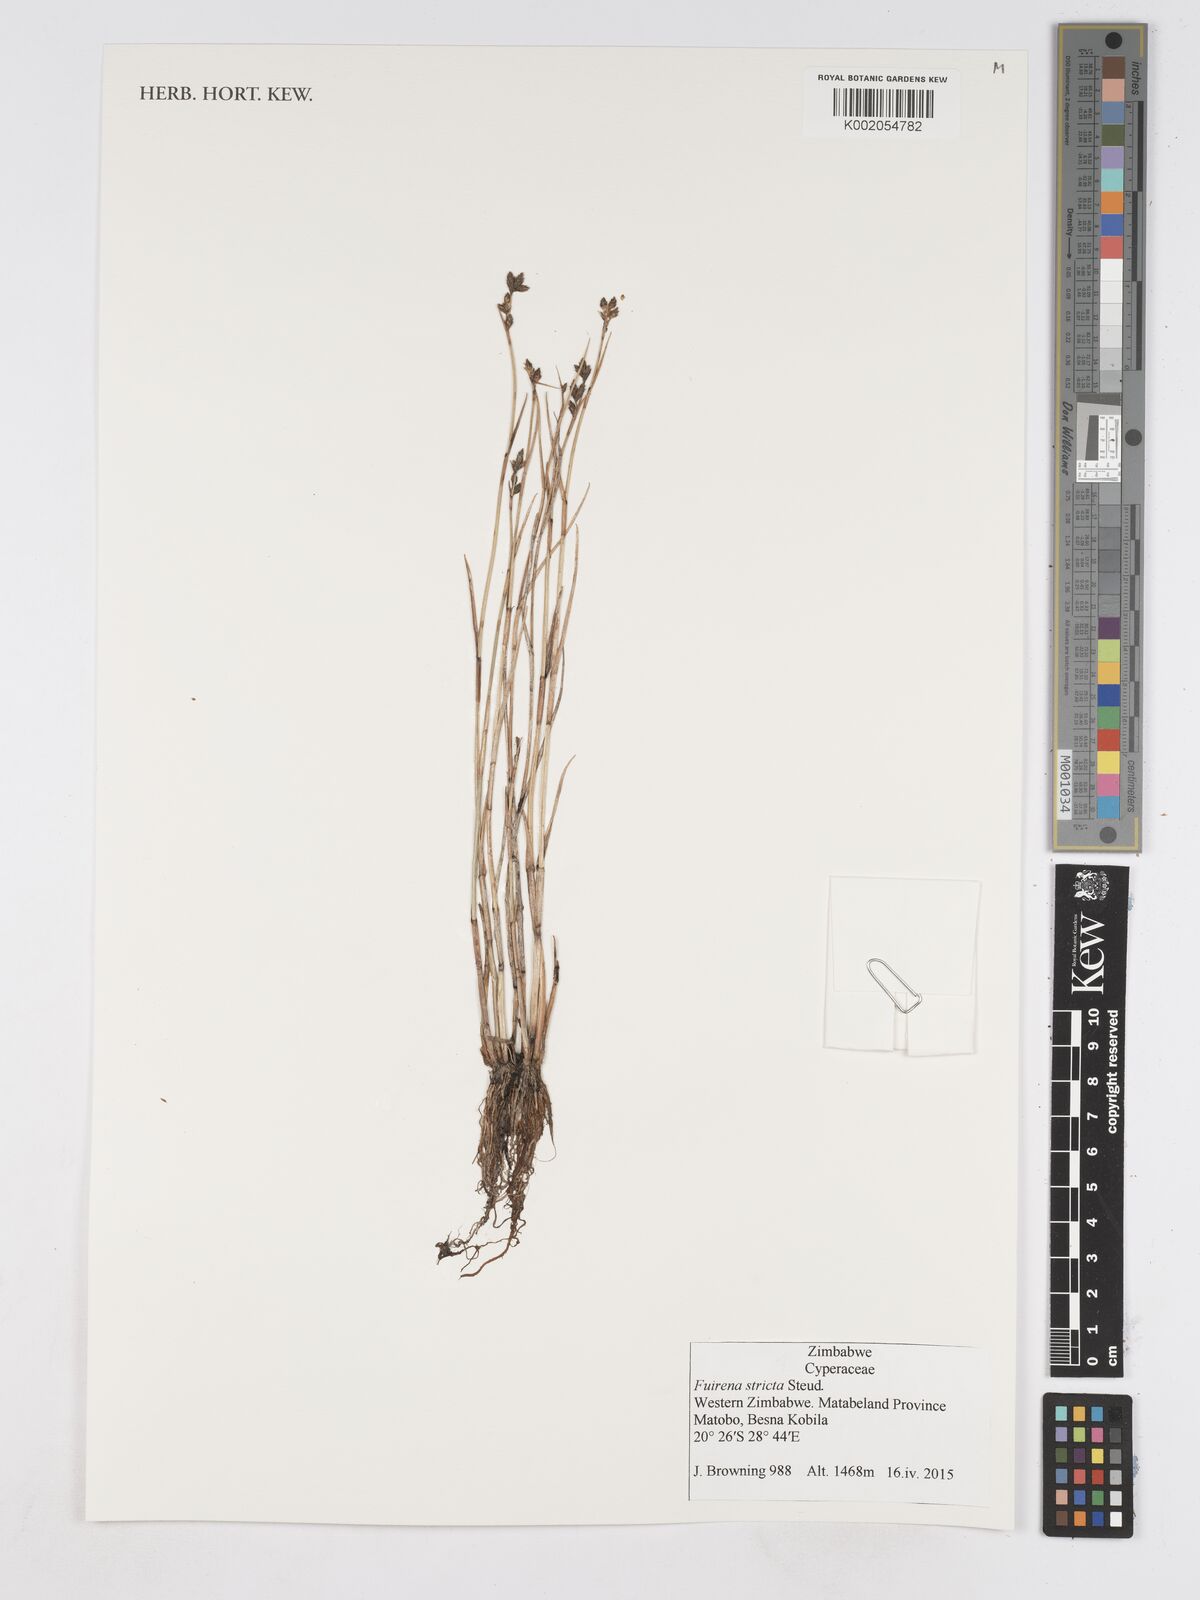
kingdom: Plantae
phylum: Tracheophyta
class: Liliopsida
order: Poales
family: Cyperaceae
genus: Fuirena
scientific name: Fuirena stricta
